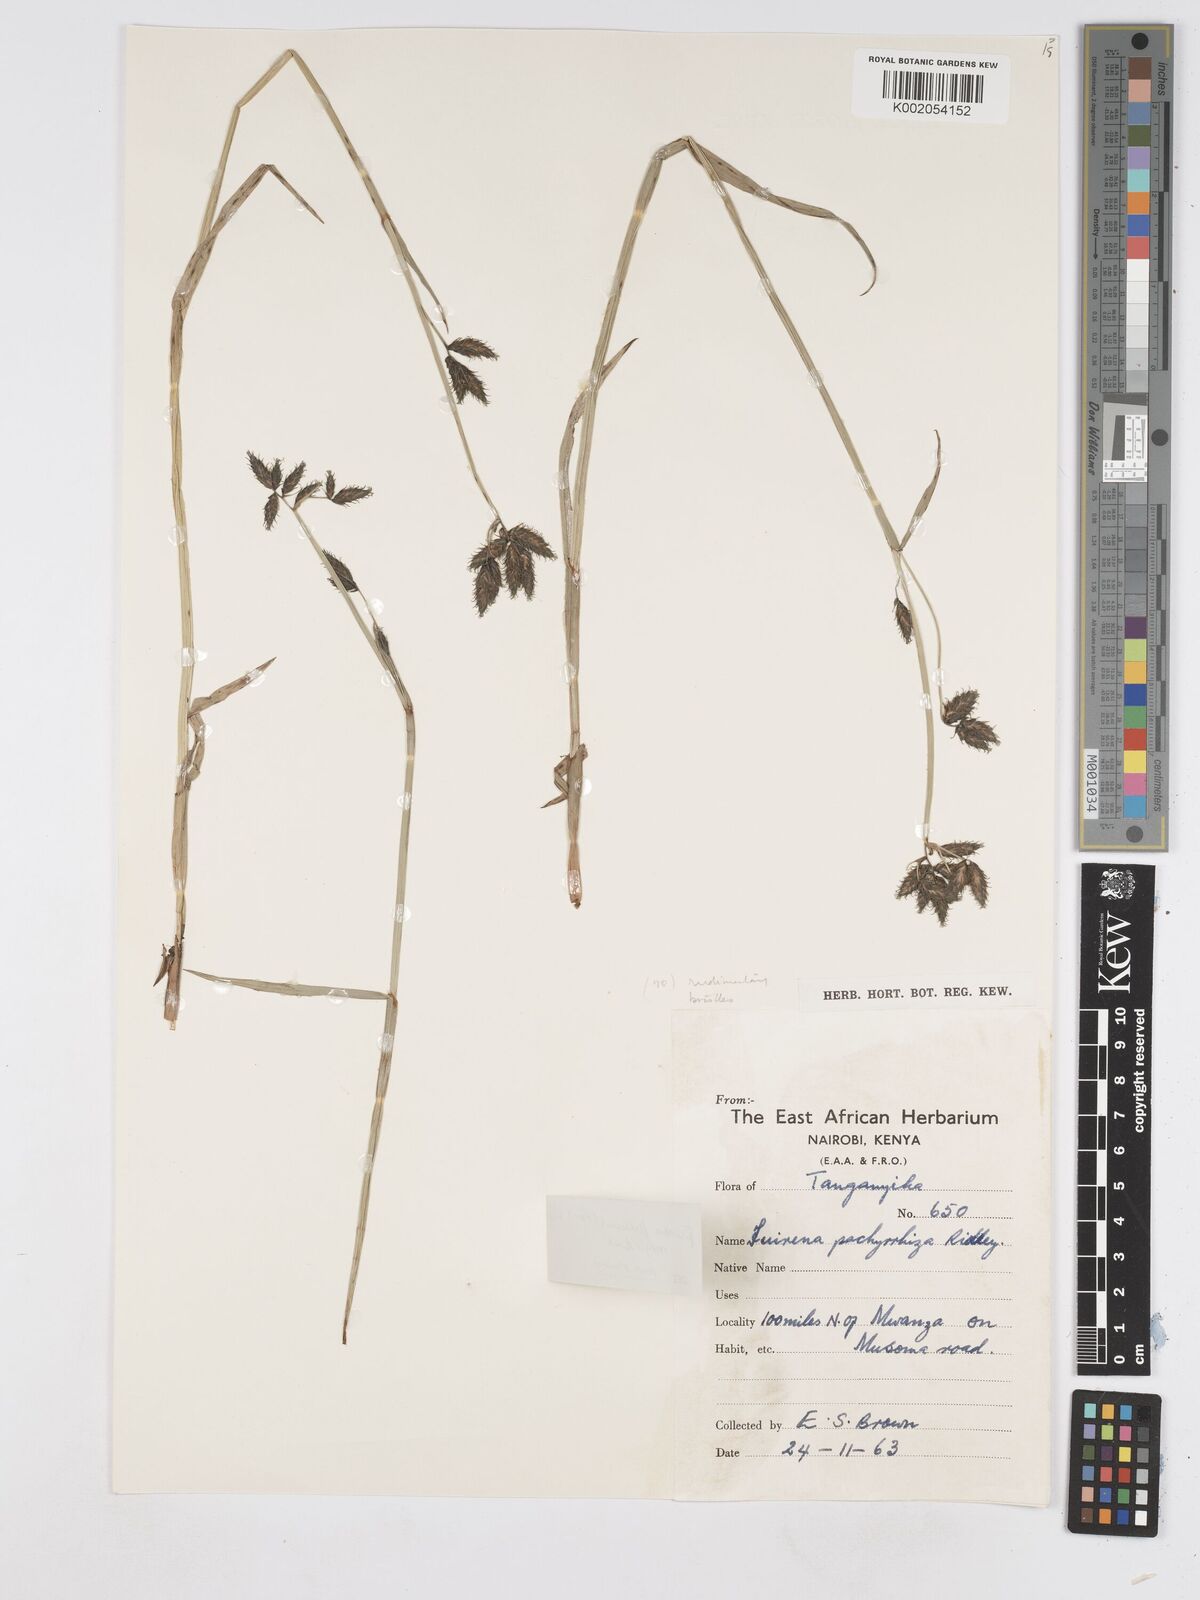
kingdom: Plantae
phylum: Tracheophyta
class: Liliopsida
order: Poales
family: Cyperaceae
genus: Fuirena
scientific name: Fuirena pachyrrhiza
